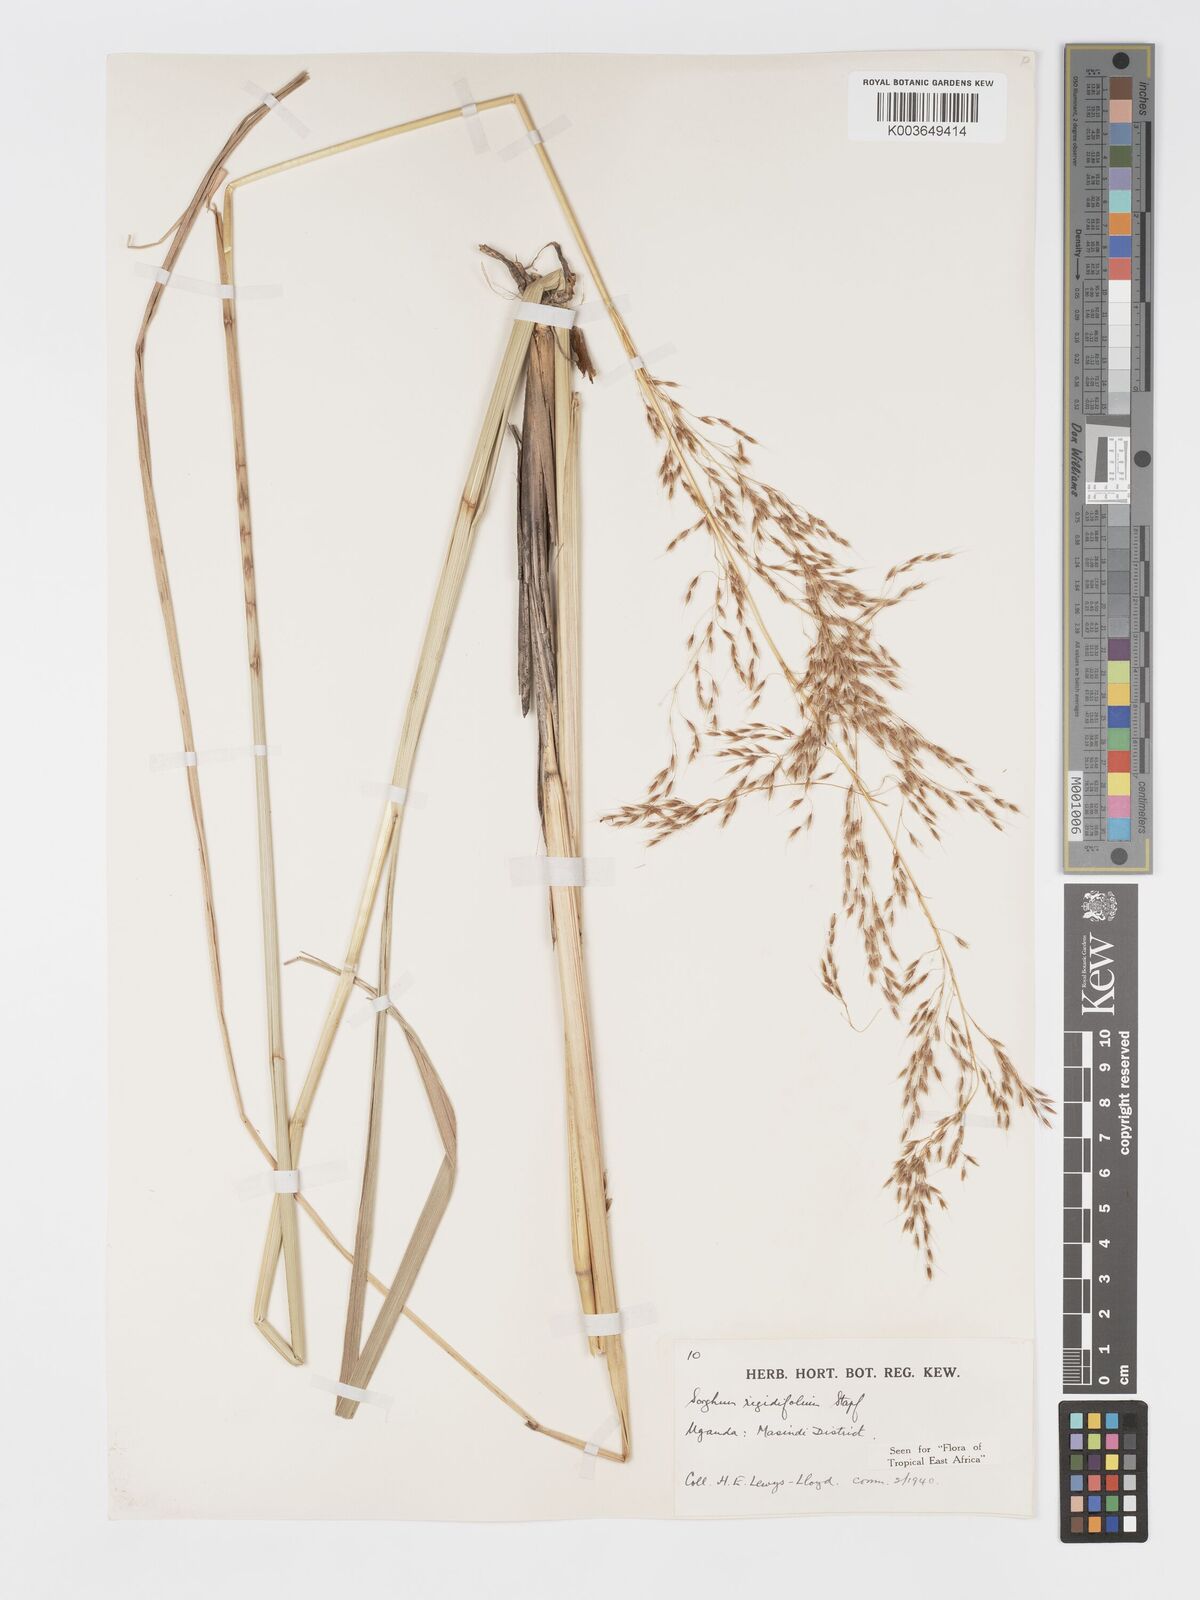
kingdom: Plantae
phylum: Tracheophyta
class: Liliopsida
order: Poales
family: Poaceae
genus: Sorghastrum
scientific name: Sorghastrum stipoides
